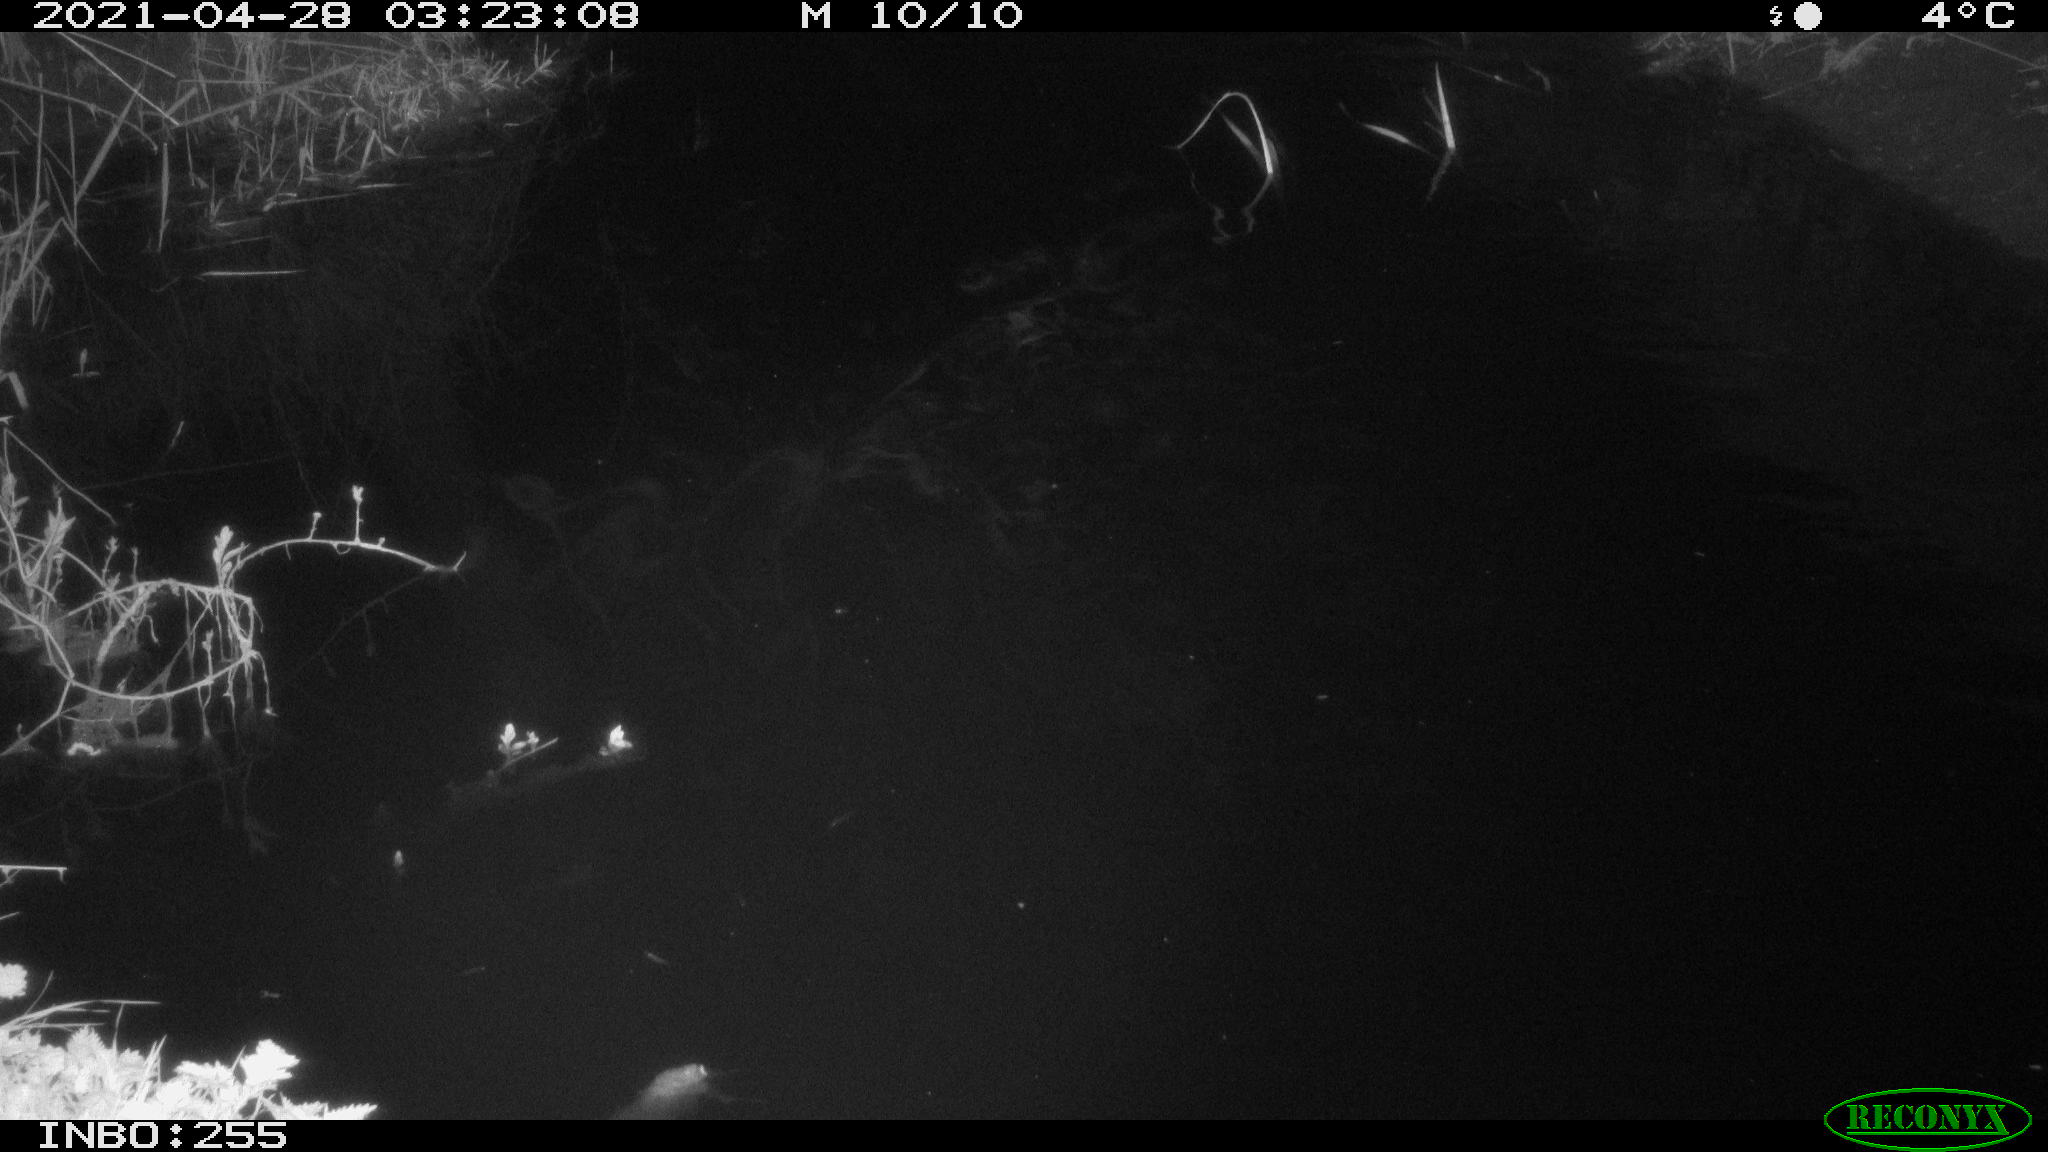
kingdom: Animalia
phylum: Chordata
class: Aves
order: Anseriformes
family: Anatidae
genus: Anas
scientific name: Anas platyrhynchos
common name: Mallard
